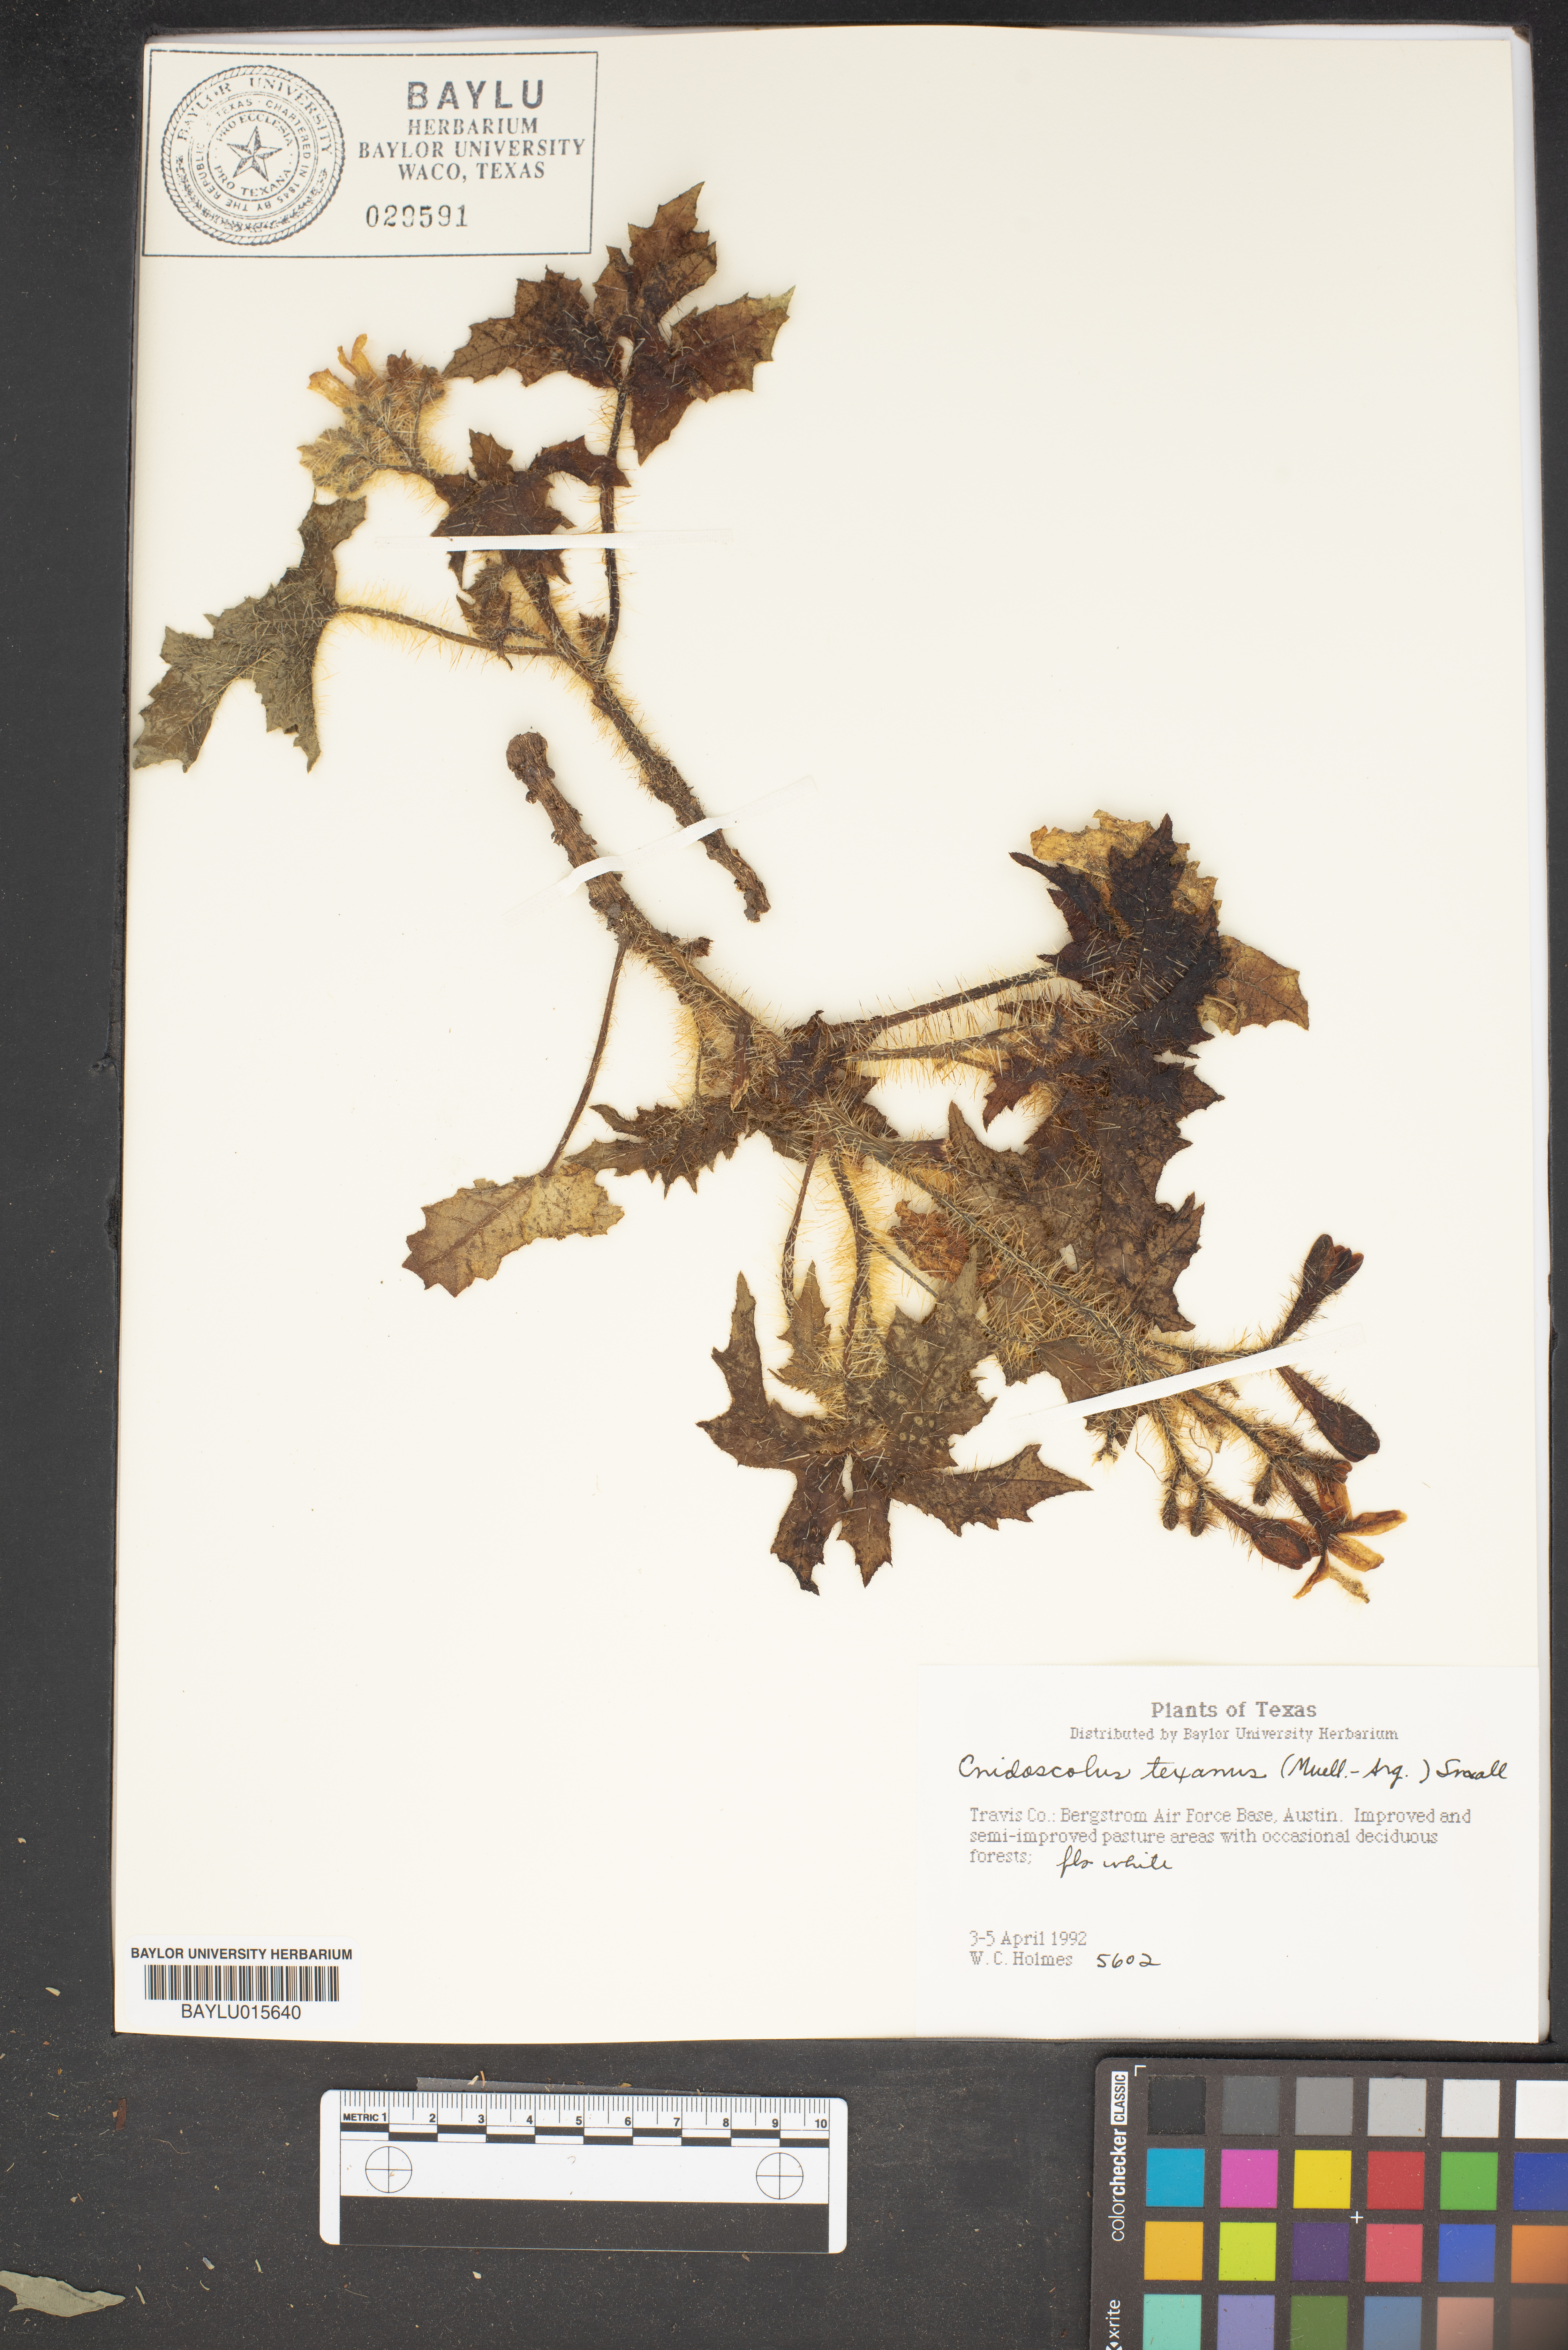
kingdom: Plantae
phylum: Tracheophyta
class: Magnoliopsida
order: Malpighiales
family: Euphorbiaceae
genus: Cnidoscolus
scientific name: Cnidoscolus texanus
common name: Texas bull-nettle
